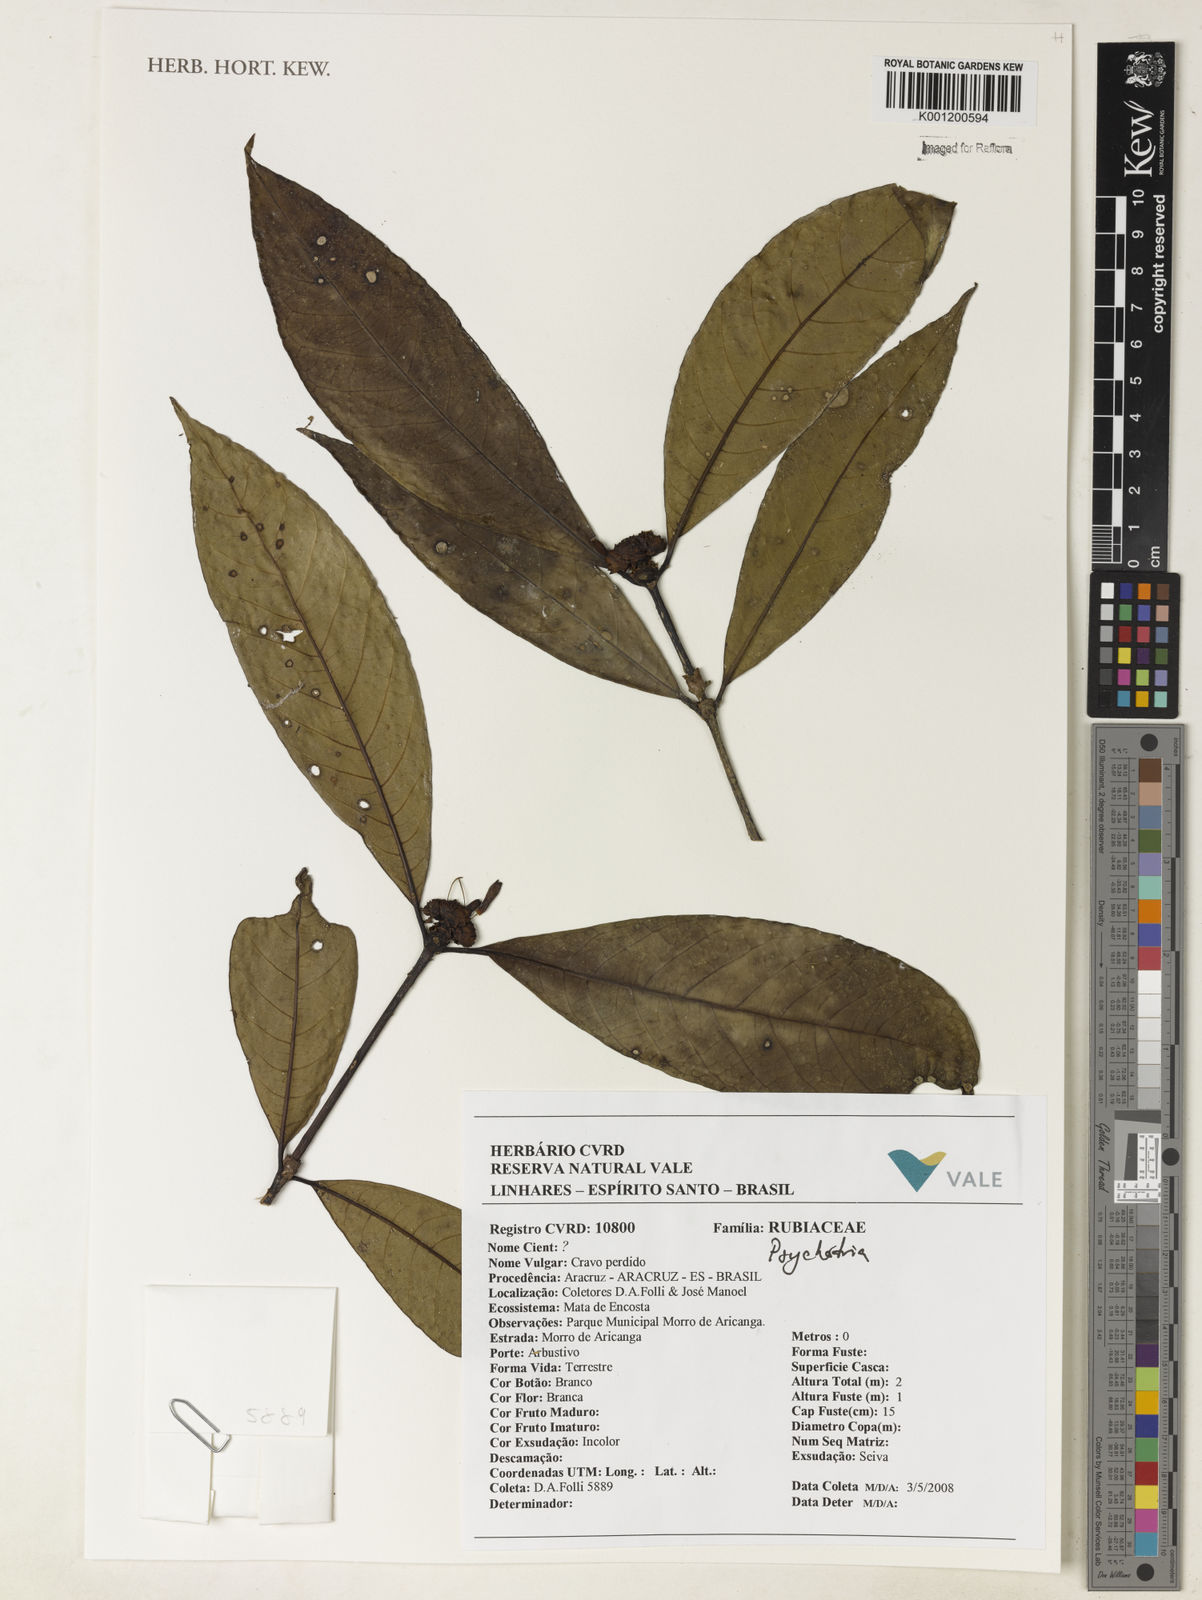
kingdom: Plantae
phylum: Tracheophyta
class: Magnoliopsida
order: Gentianales
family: Rubiaceae
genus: Psychotria
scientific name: Psychotria
